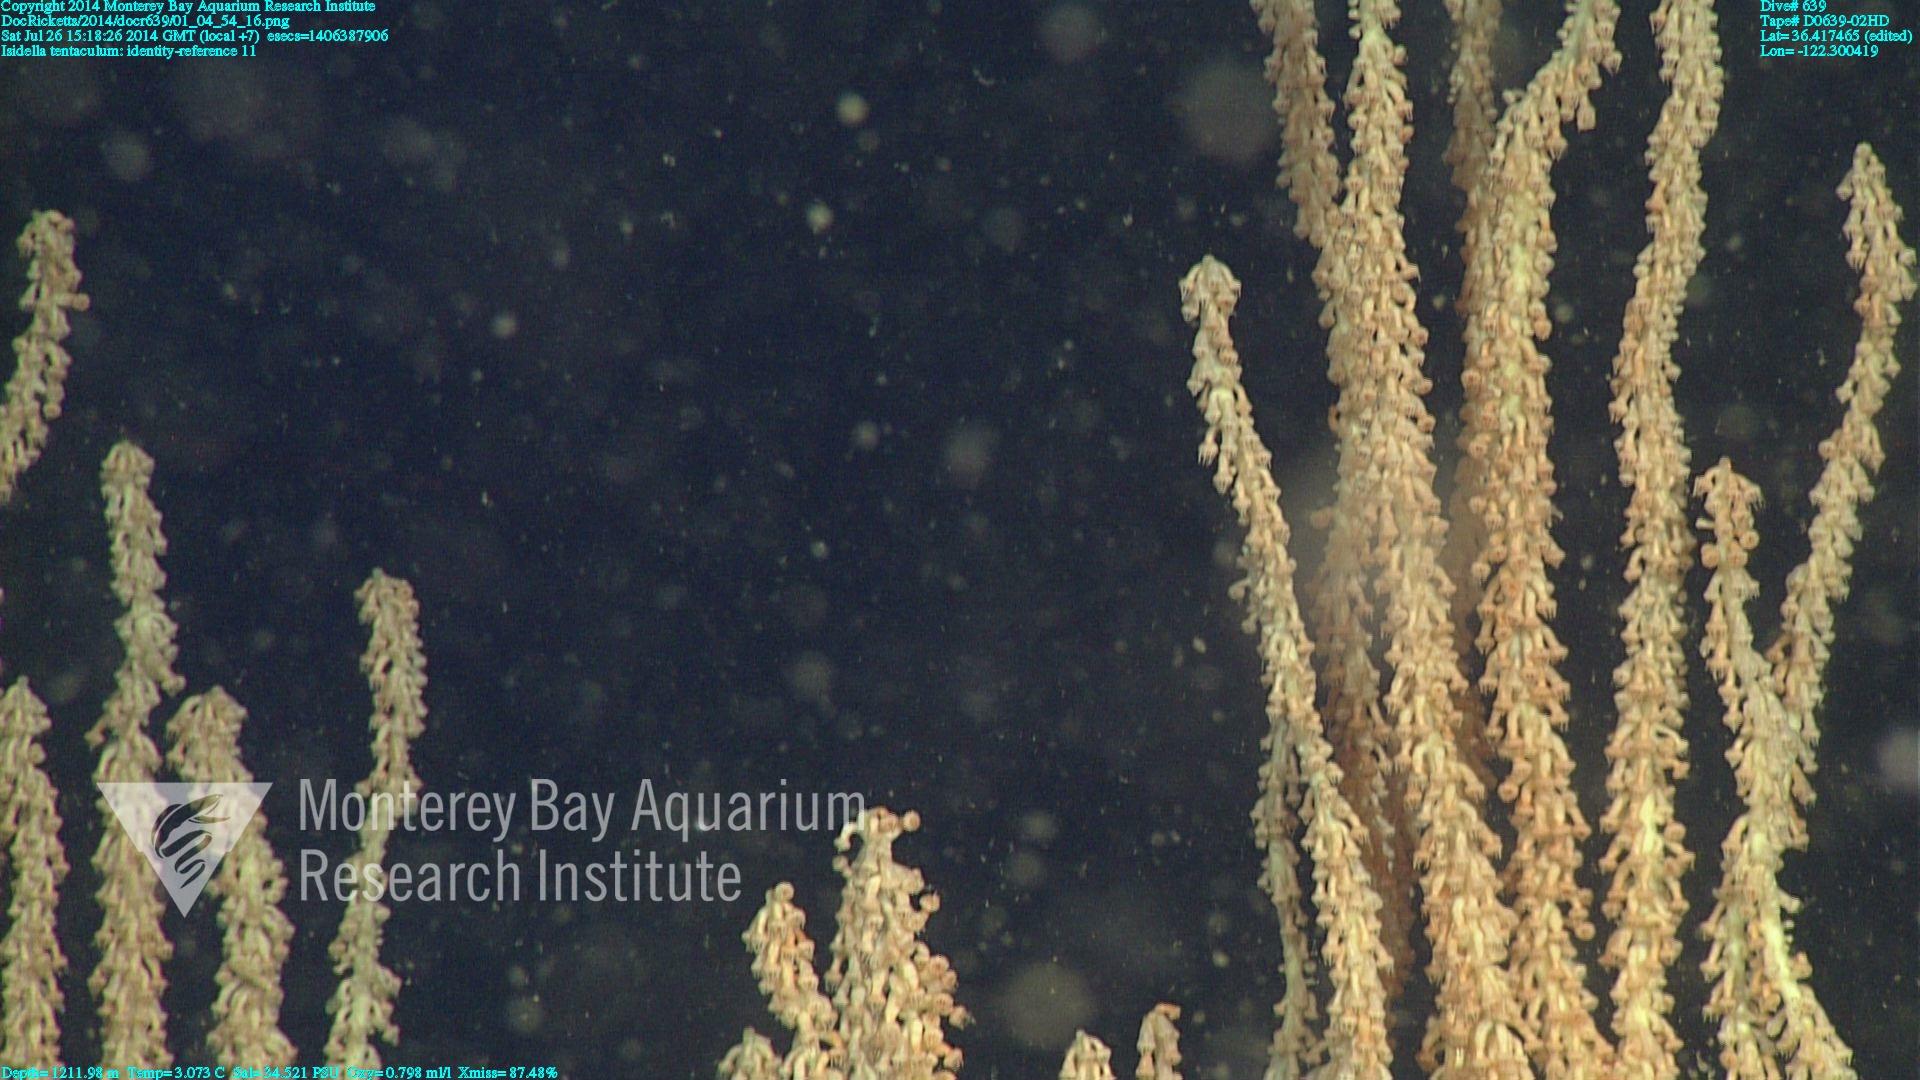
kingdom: Animalia
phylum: Cnidaria
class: Anthozoa
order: Scleralcyonacea
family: Keratoisididae
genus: Isidella
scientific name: Isidella tentaculum
